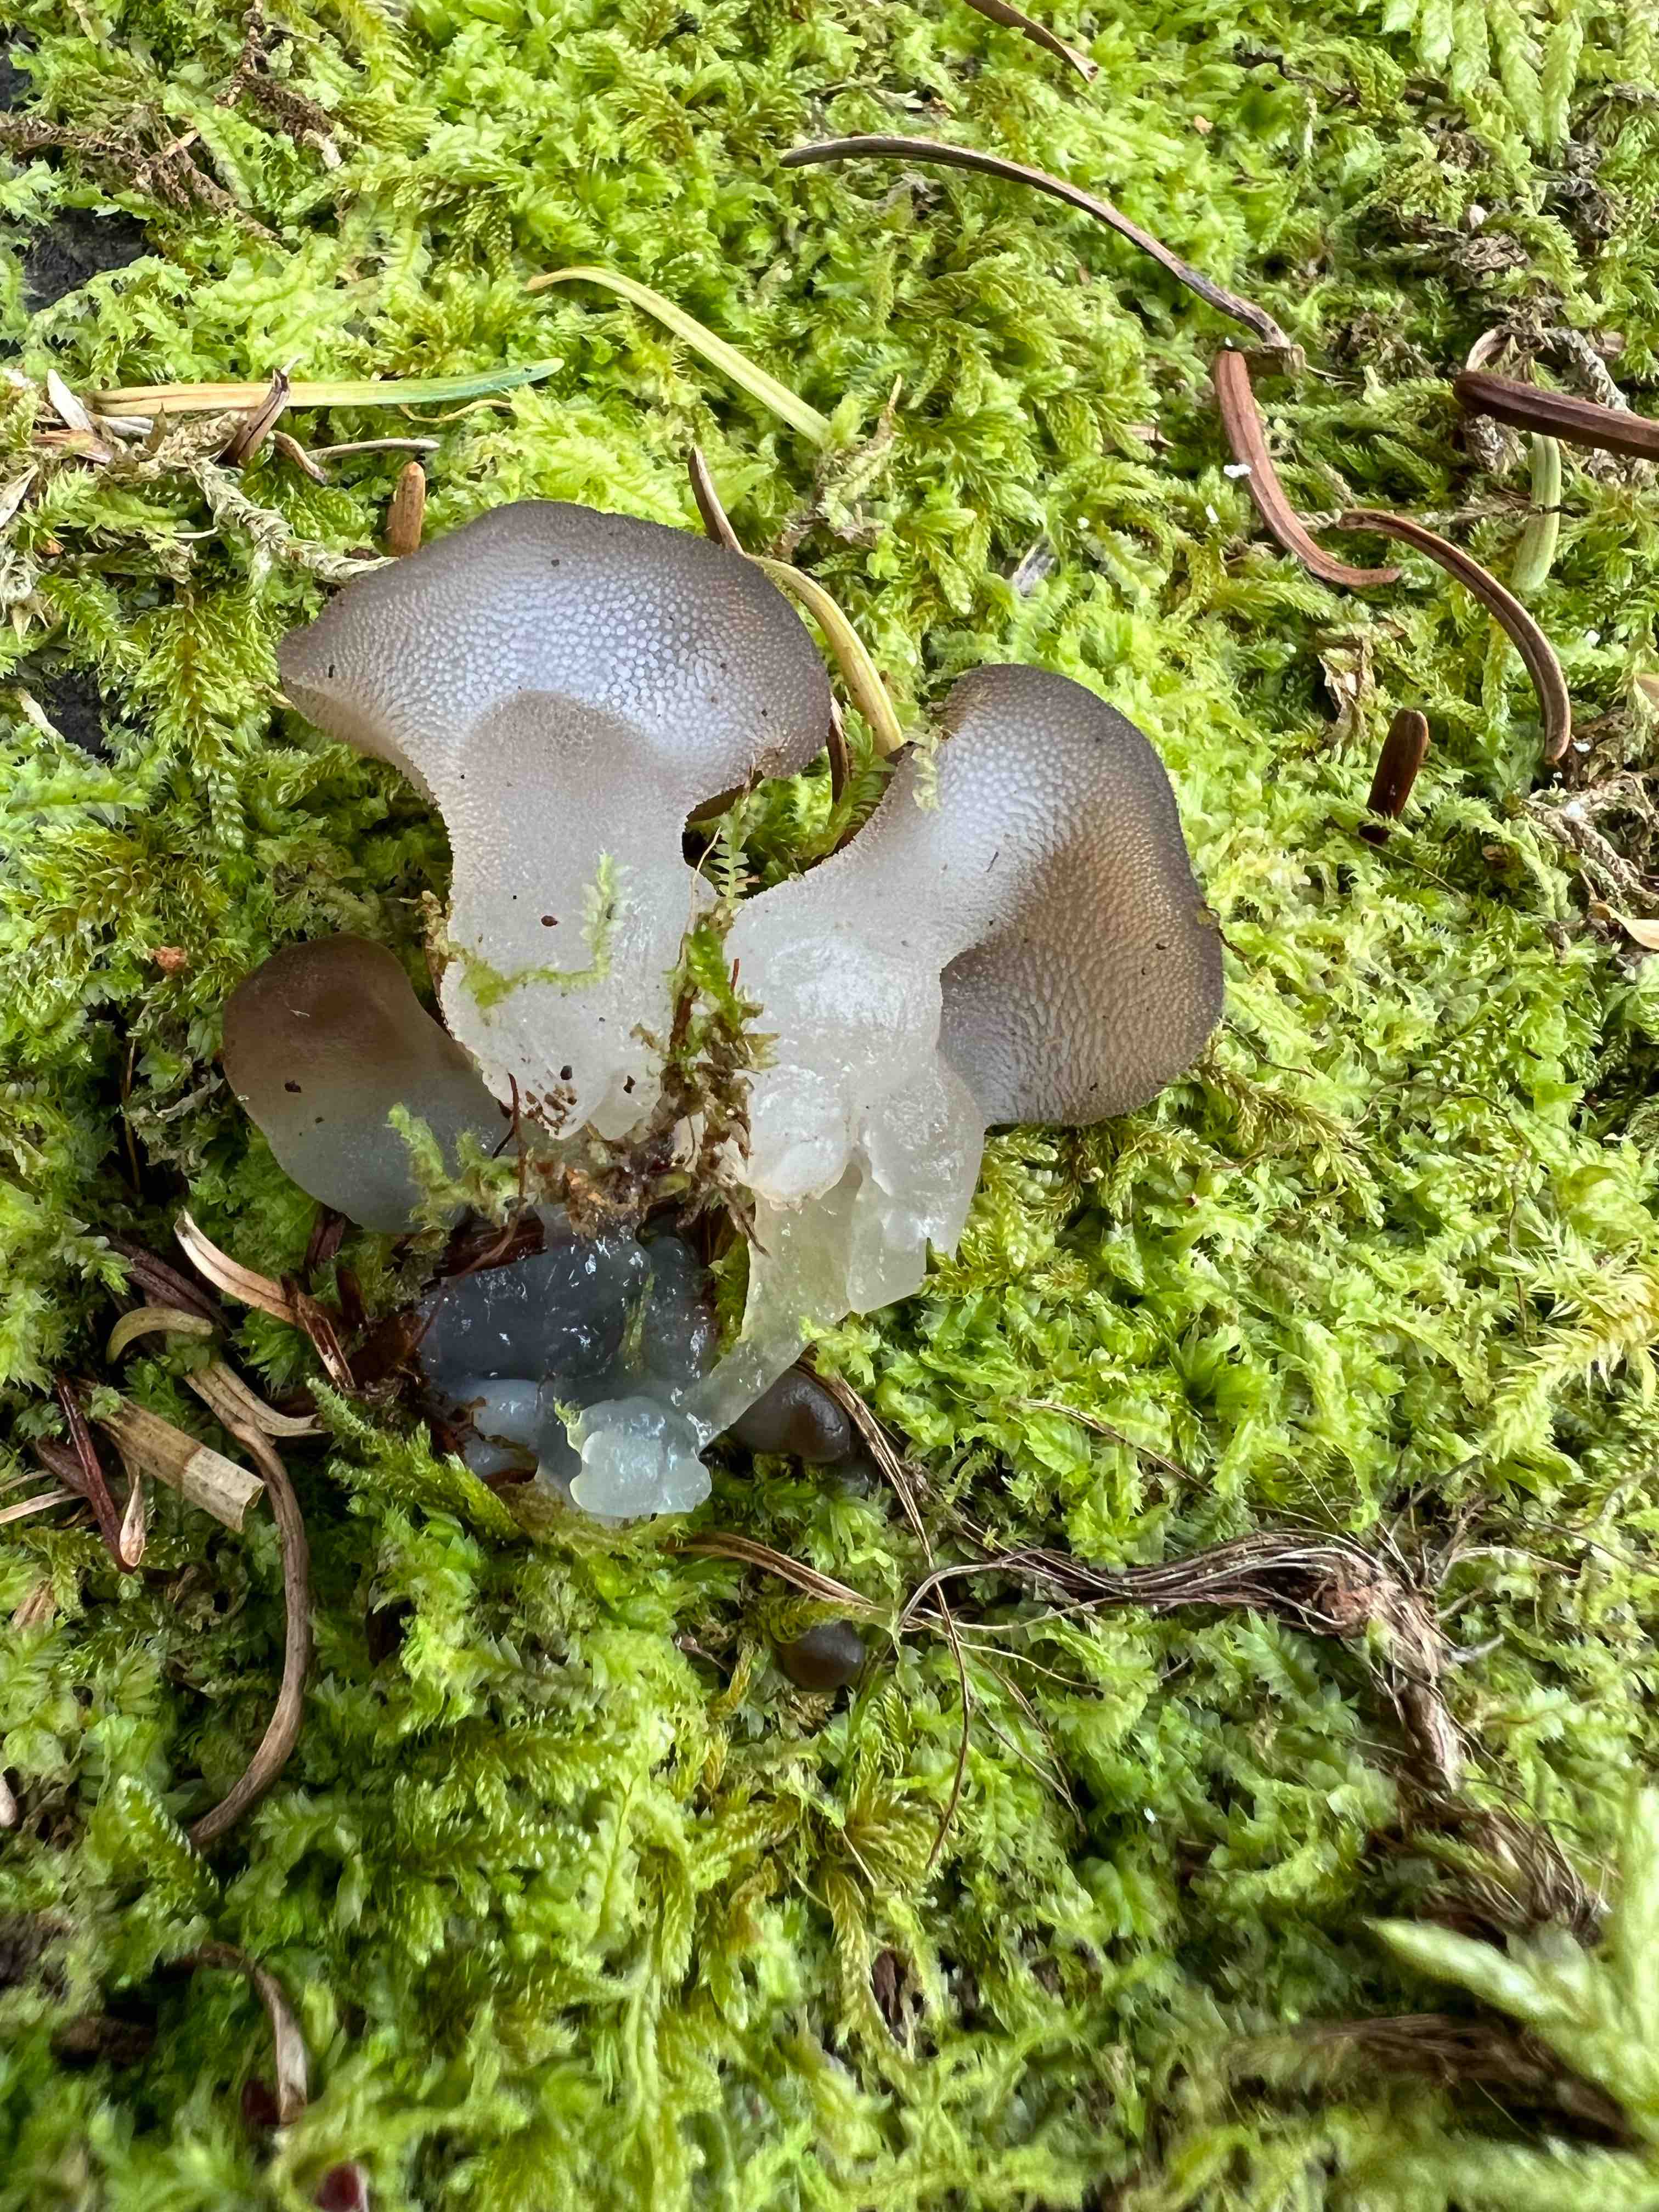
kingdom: Fungi
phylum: Basidiomycota
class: Agaricomycetes
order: Auriculariales
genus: Pseudohydnum
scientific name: Pseudohydnum gelatinosum
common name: bævretand
